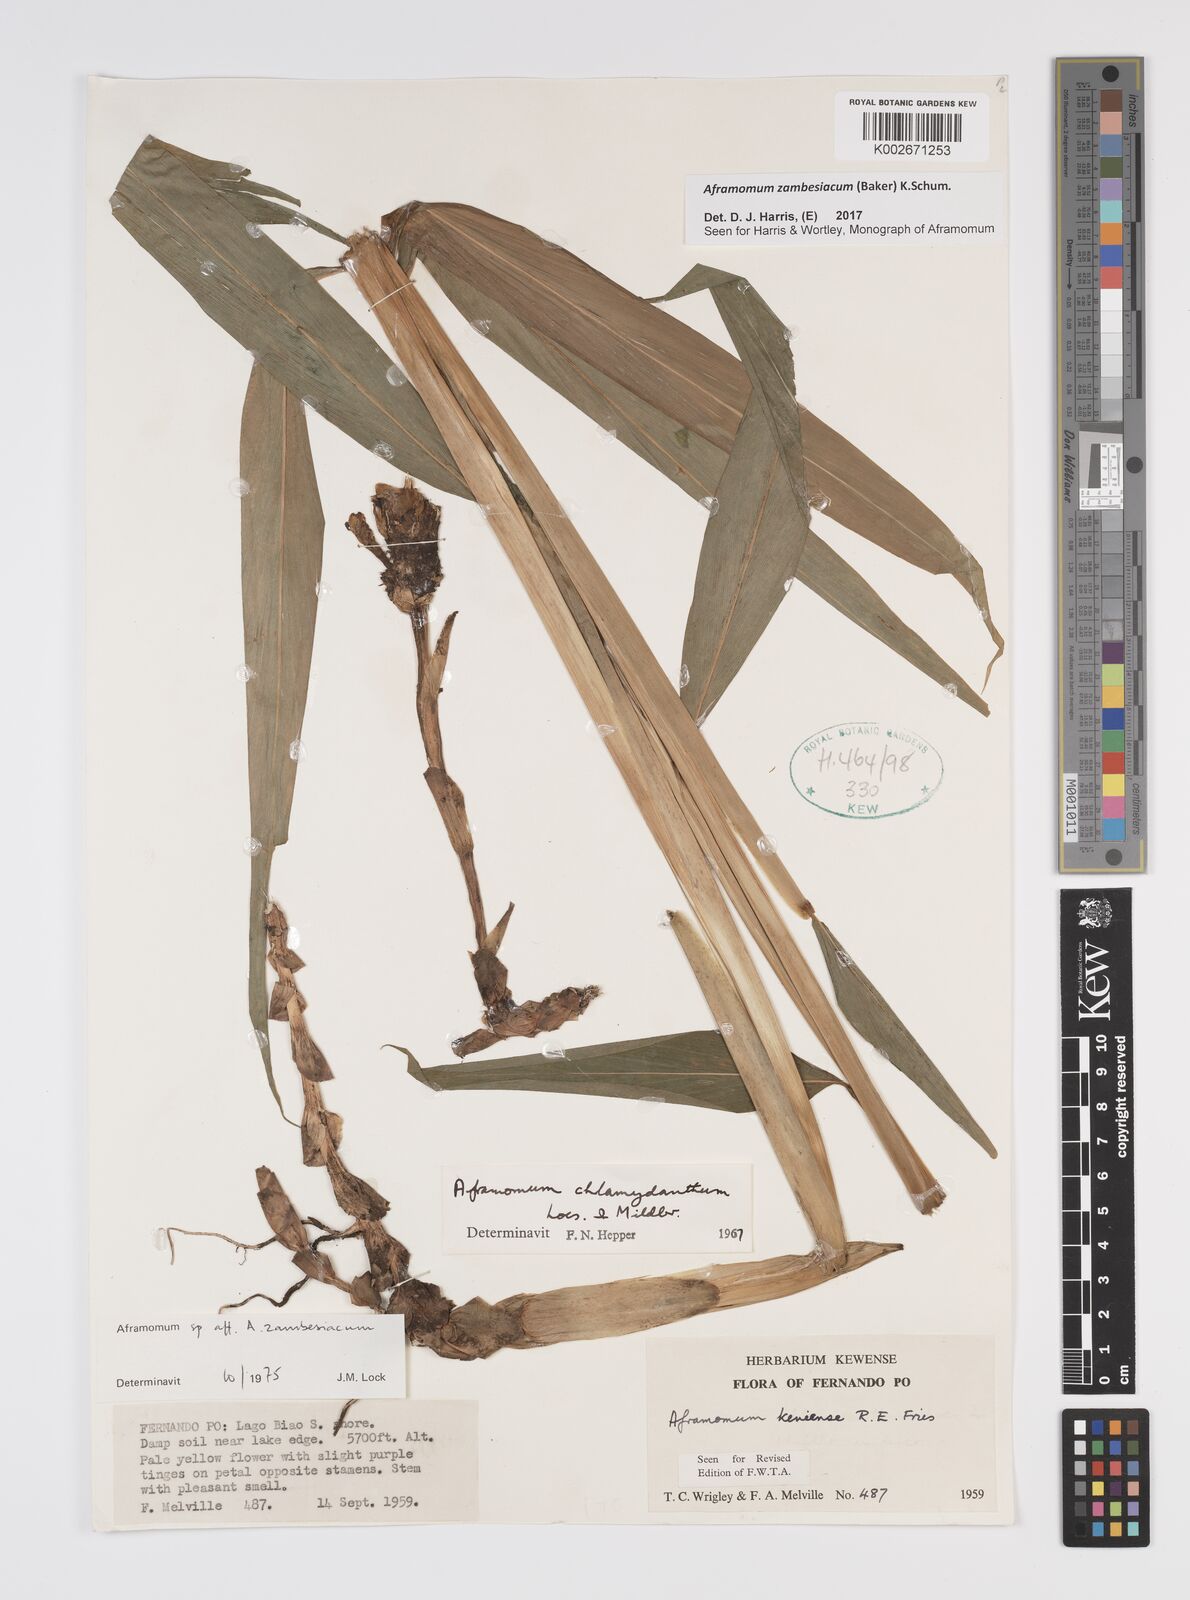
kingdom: Plantae
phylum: Tracheophyta
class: Liliopsida
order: Zingiberales
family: Zingiberaceae
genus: Aframomum
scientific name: Aframomum zambesiacum
